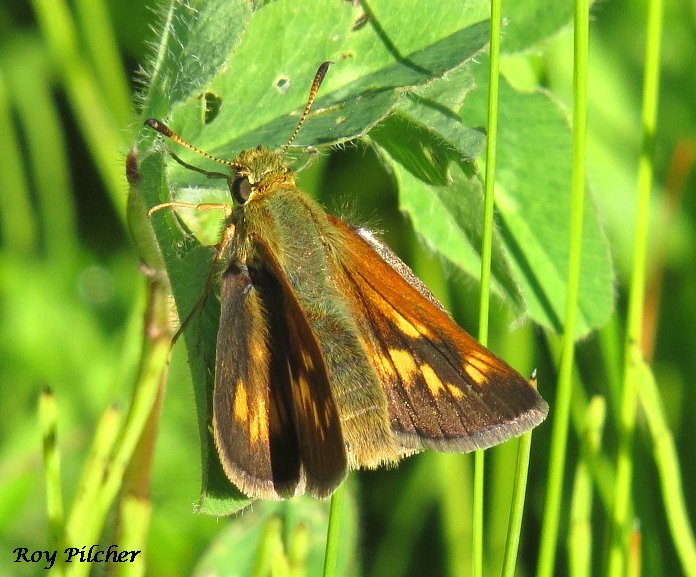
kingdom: Animalia
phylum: Arthropoda
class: Insecta
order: Lepidoptera
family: Hesperiidae
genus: Polites
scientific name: Polites
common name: Long Dash Skipper
